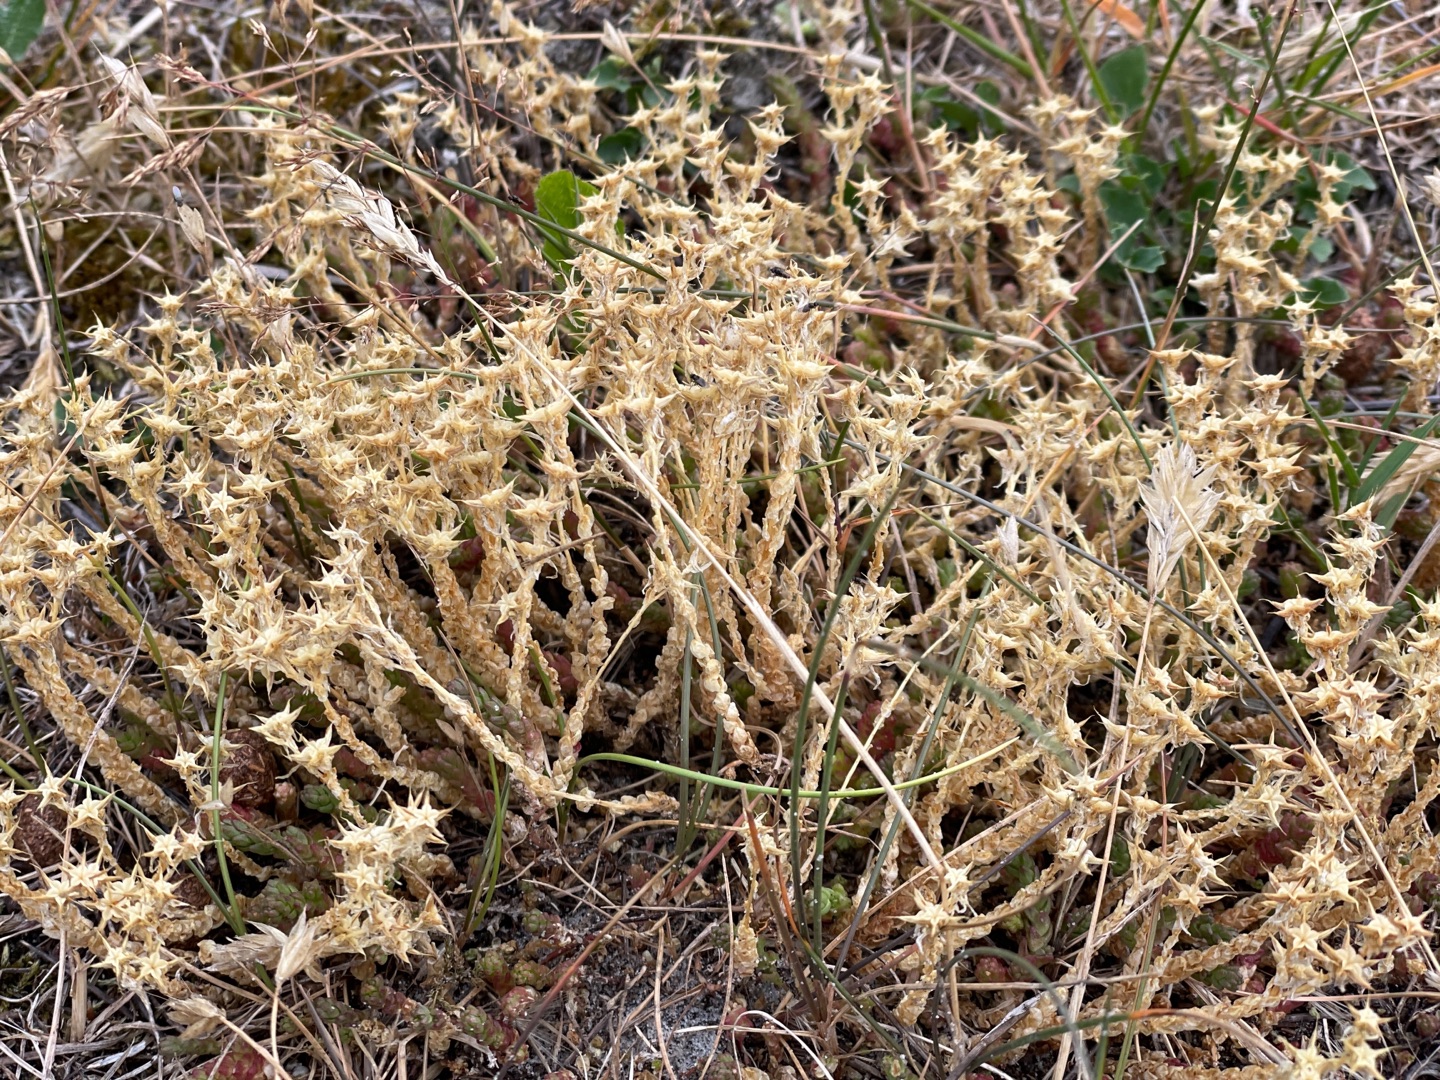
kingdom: Plantae
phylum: Tracheophyta
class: Magnoliopsida
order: Saxifragales
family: Crassulaceae
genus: Sedum
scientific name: Sedum acre
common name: Bidende stenurt
